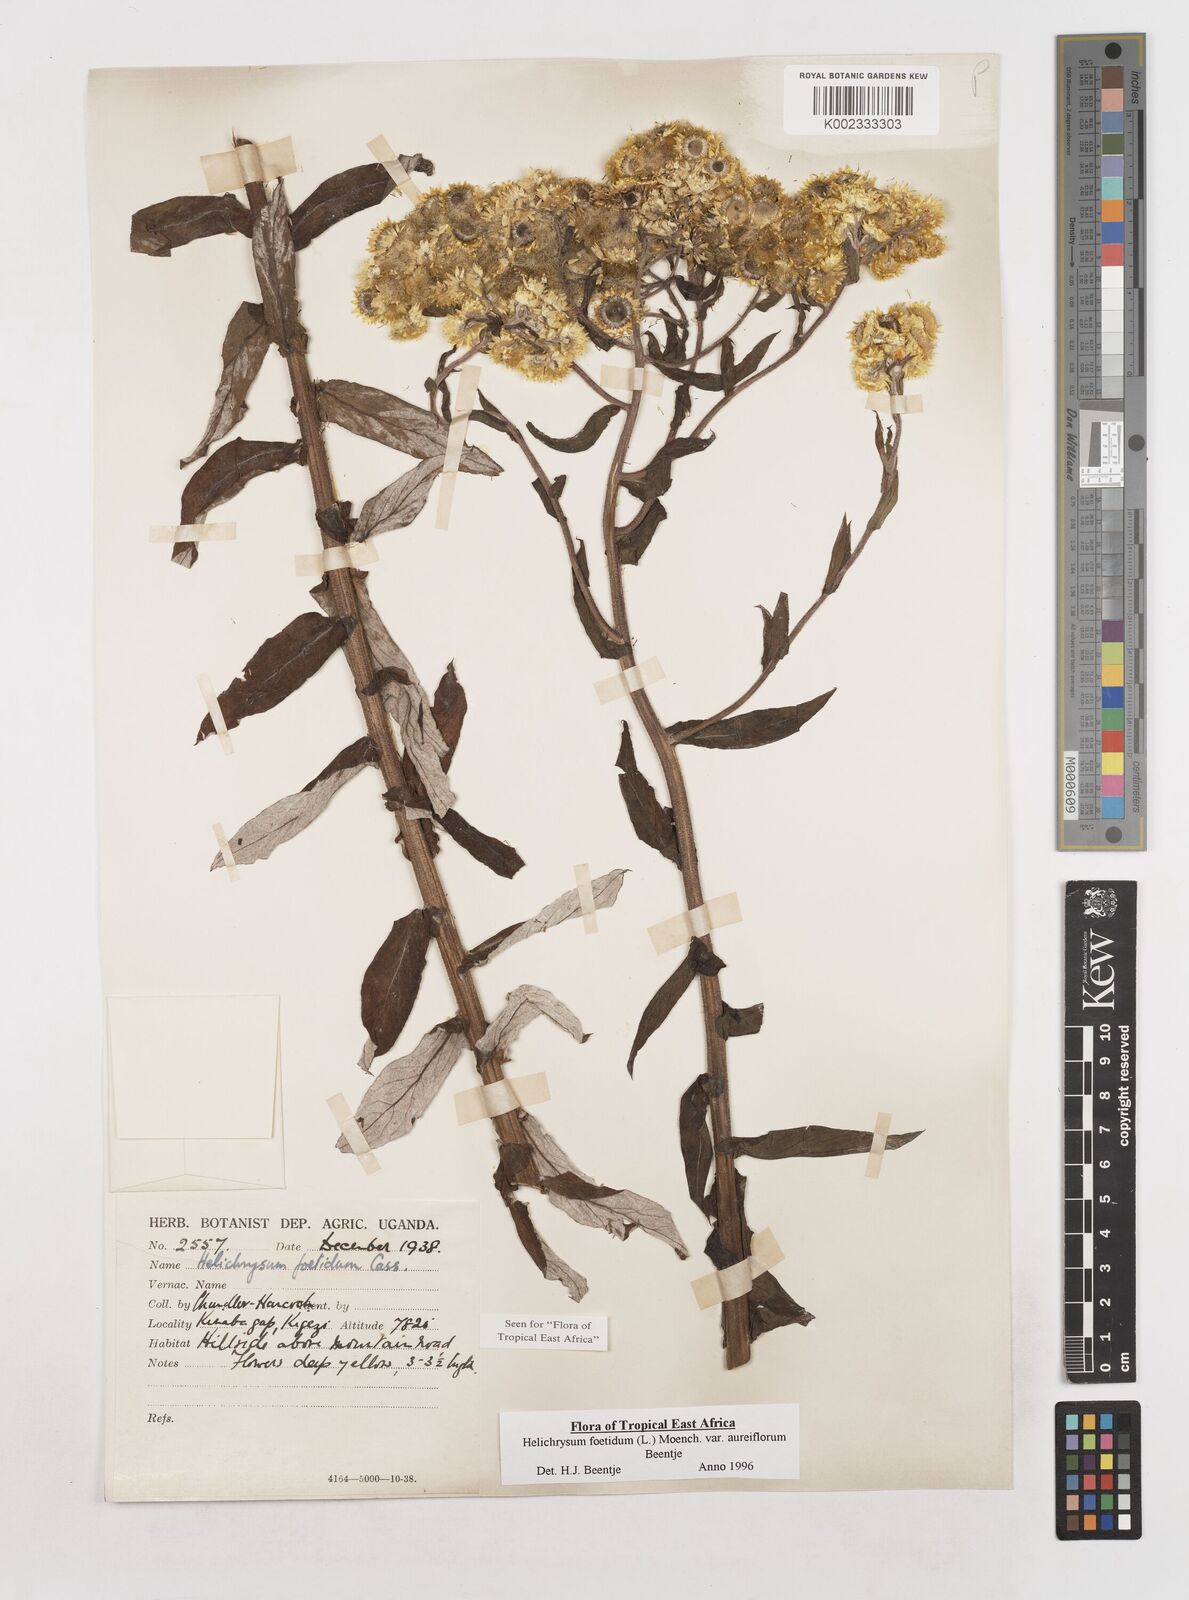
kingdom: Plantae
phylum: Tracheophyta
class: Magnoliopsida
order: Asterales
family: Asteraceae
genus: Helichrysum
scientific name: Helichrysum foetidum
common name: Stinking everlasting
